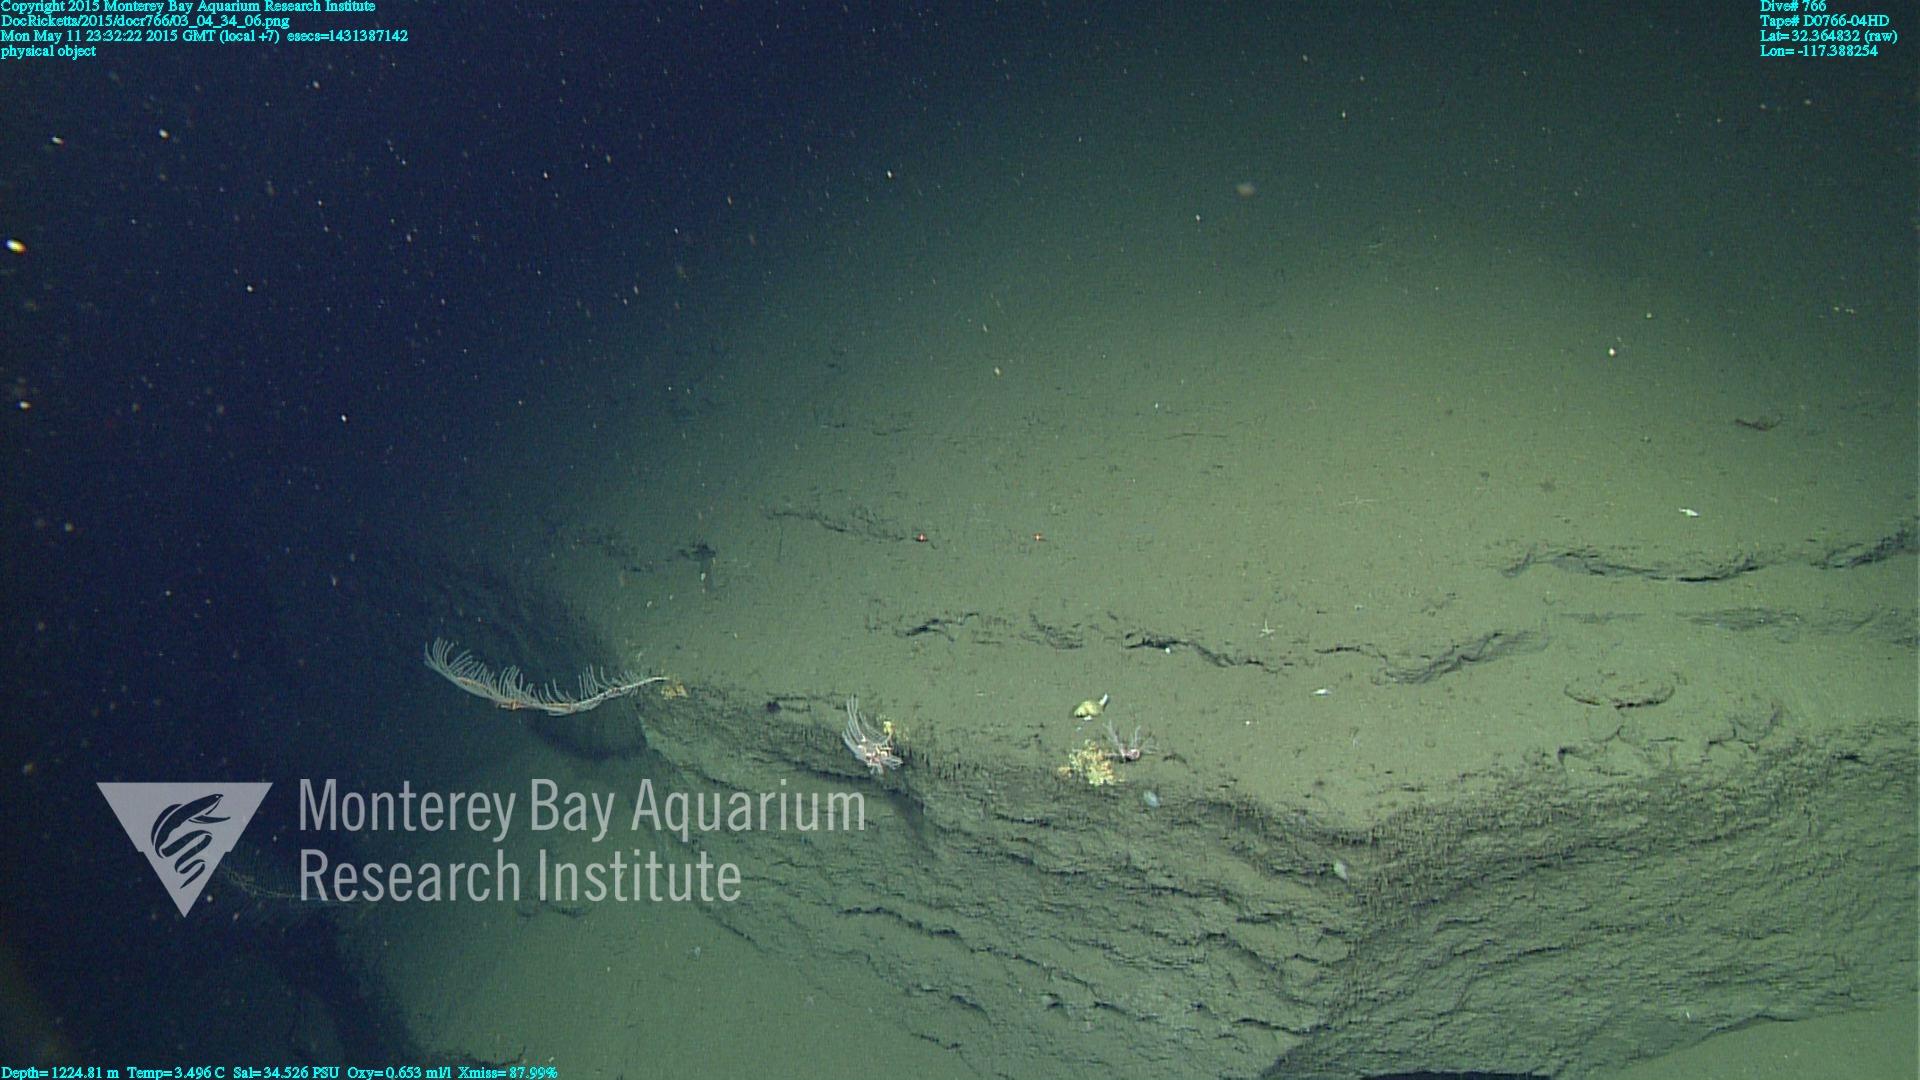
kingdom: Animalia
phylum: Cnidaria
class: Anthozoa
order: Scleralcyonacea
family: Primnoidae
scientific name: Primnoidae
